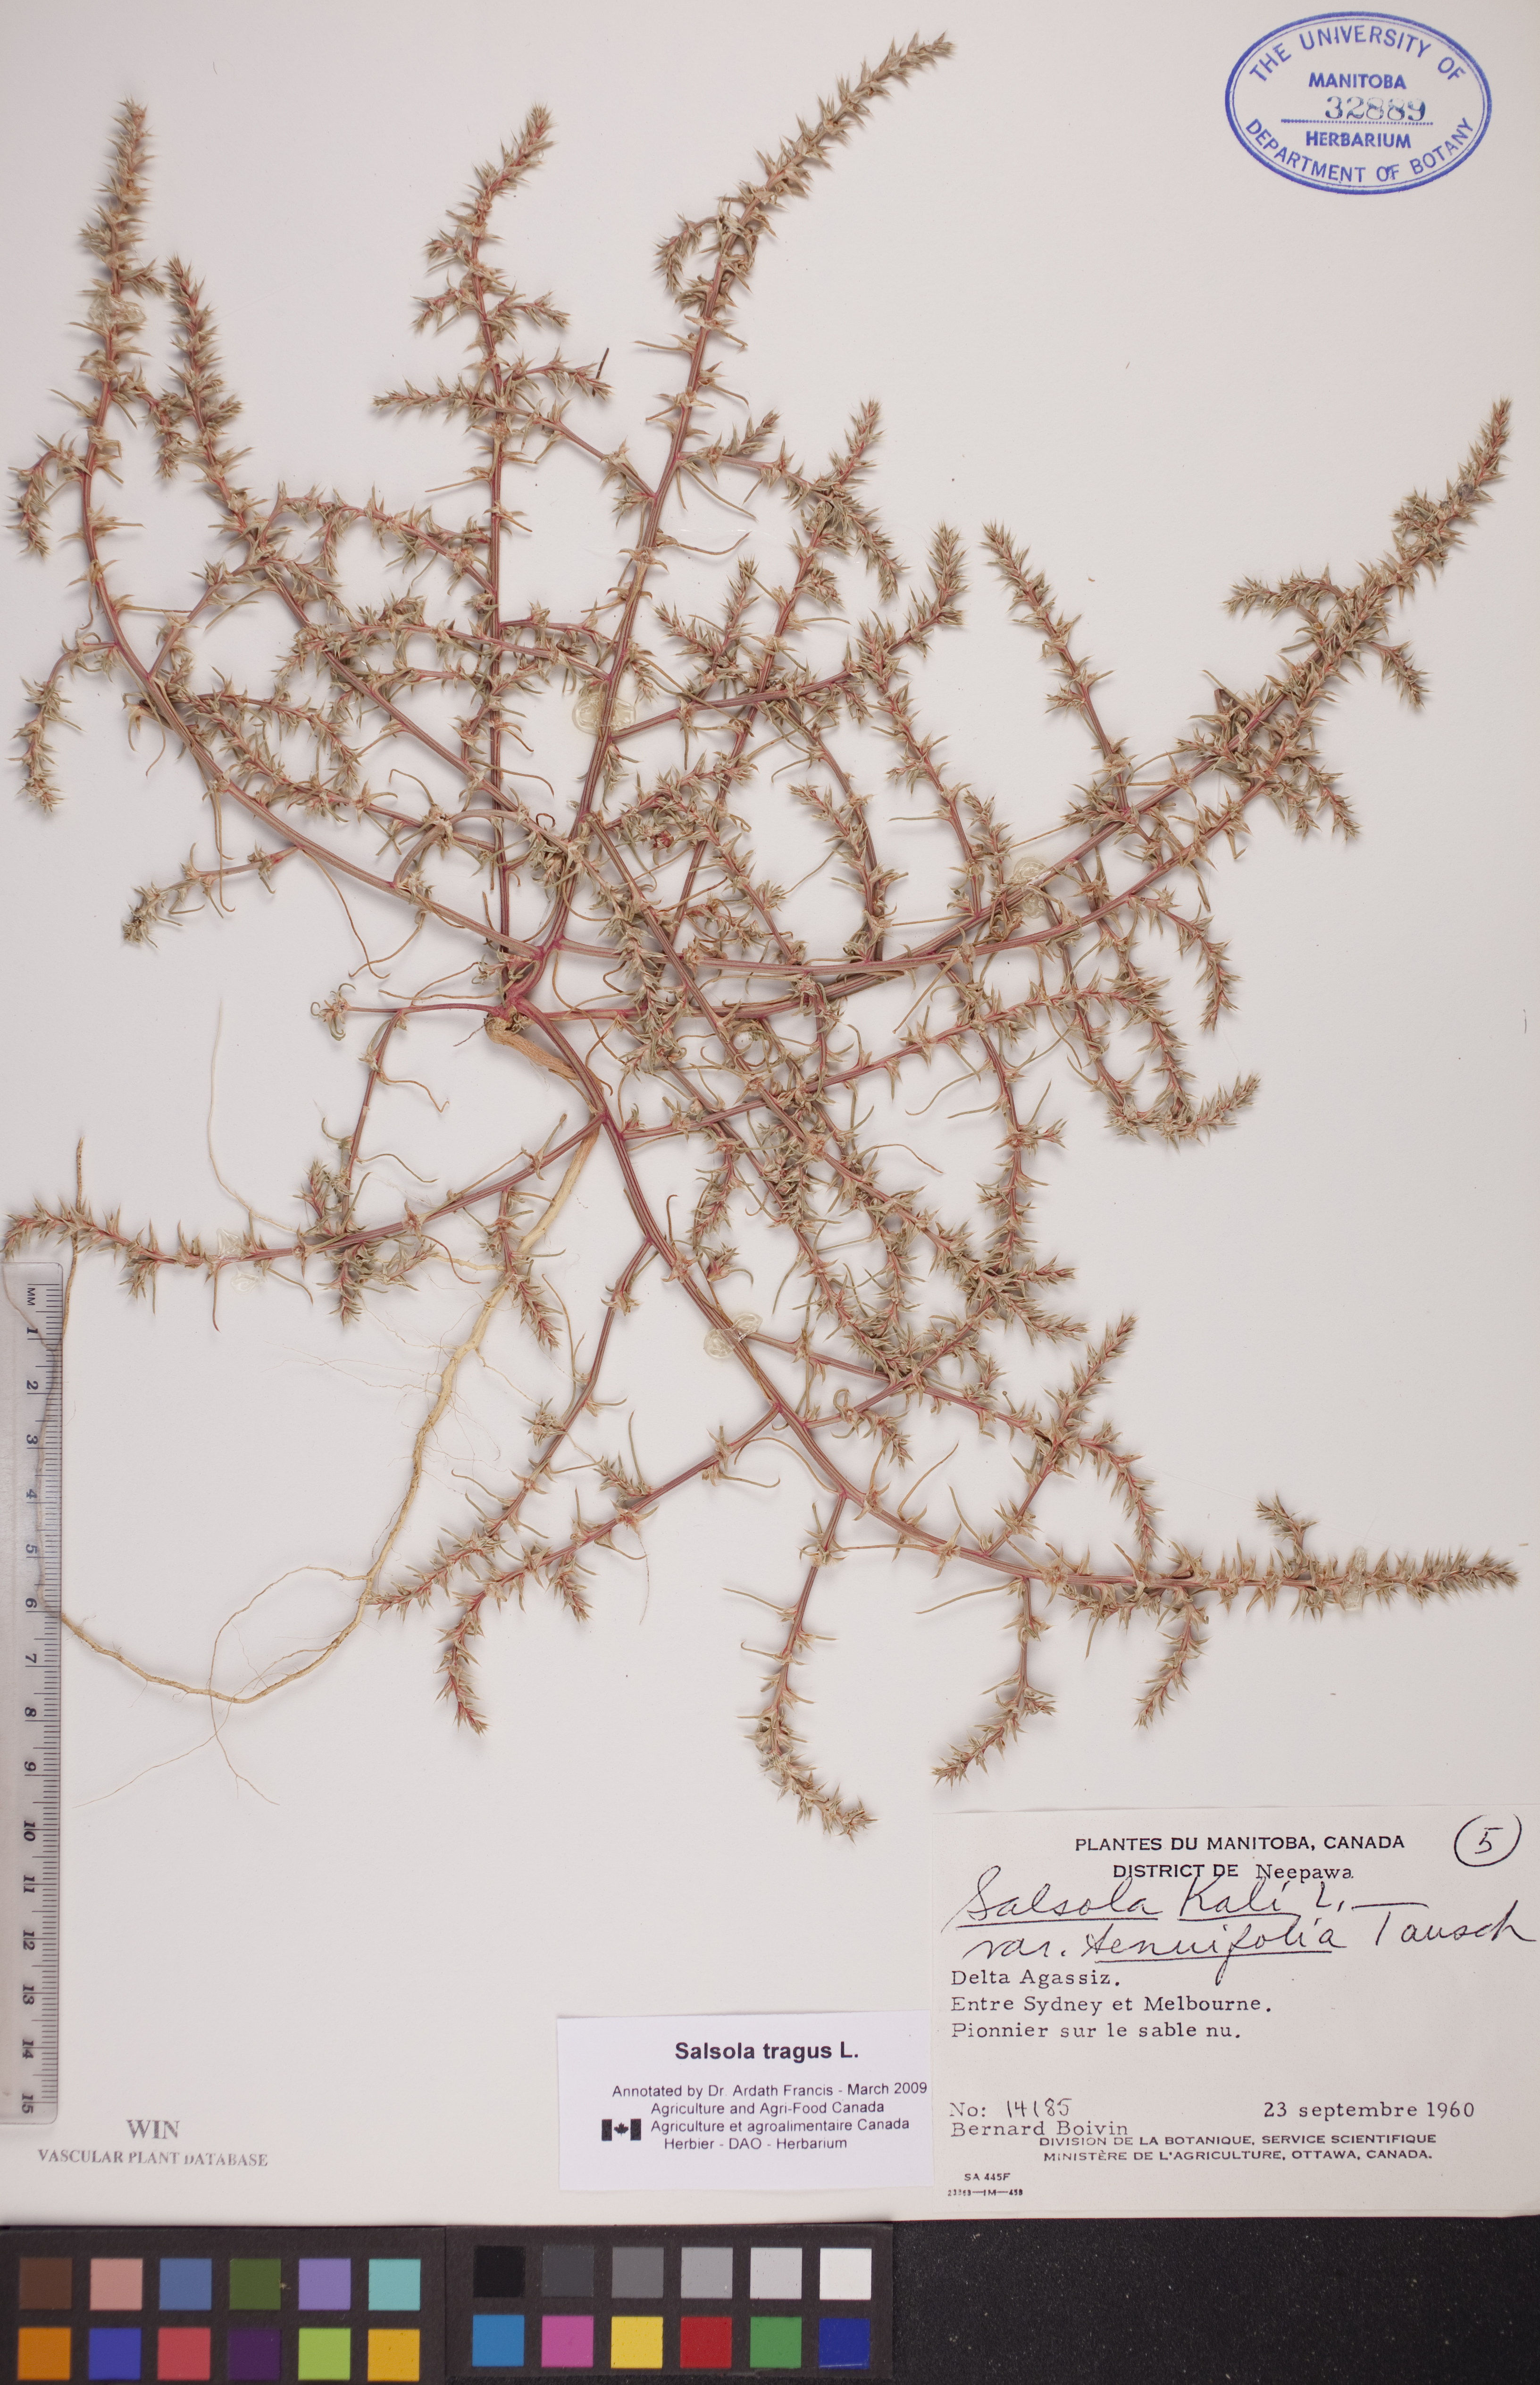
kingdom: Plantae
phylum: Tracheophyta
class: Magnoliopsida
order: Caryophyllales
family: Amaranthaceae
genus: Salsola
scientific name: Salsola tragus
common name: Prickly russian thistle
